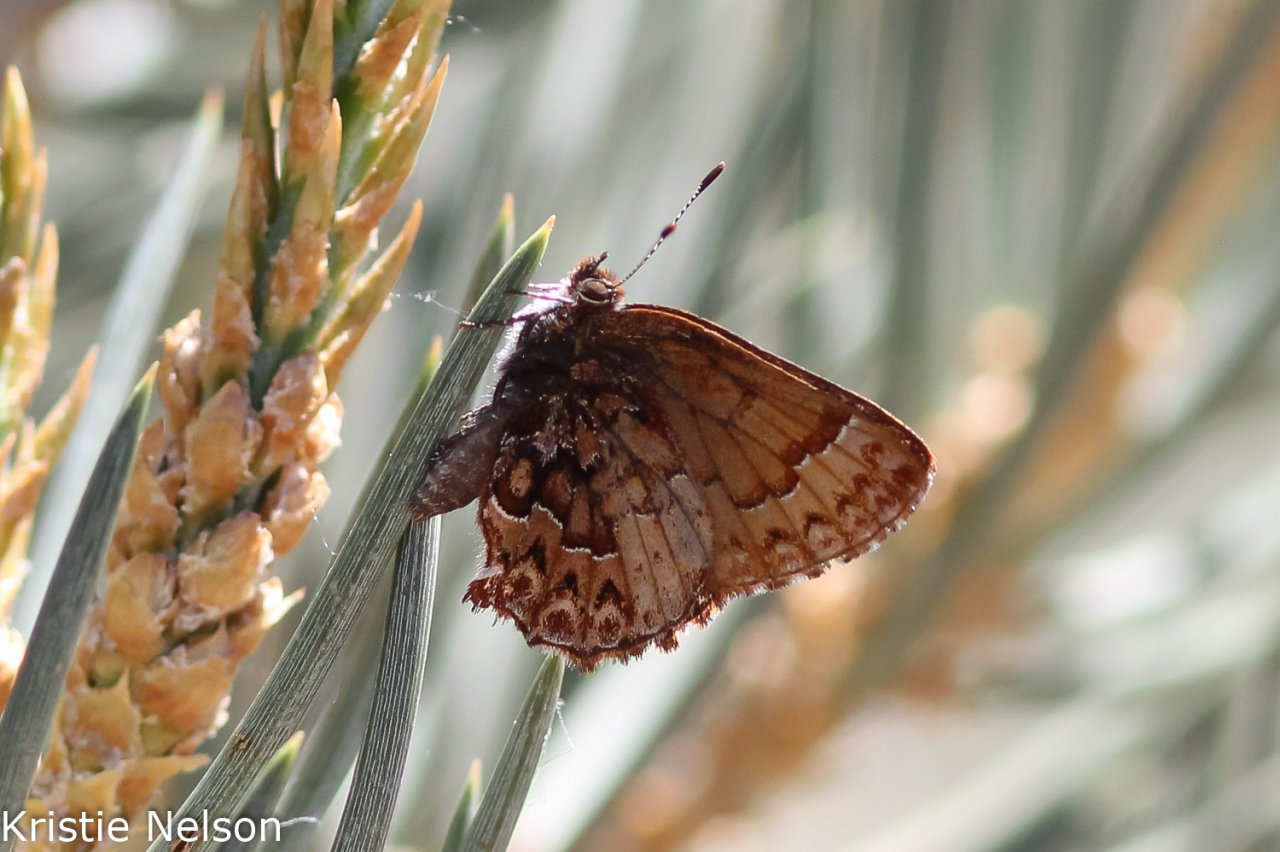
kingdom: Animalia
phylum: Arthropoda
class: Insecta
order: Lepidoptera
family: Lycaenidae
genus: Incisalia
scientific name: Incisalia eryphon
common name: Western Pine Elfin
